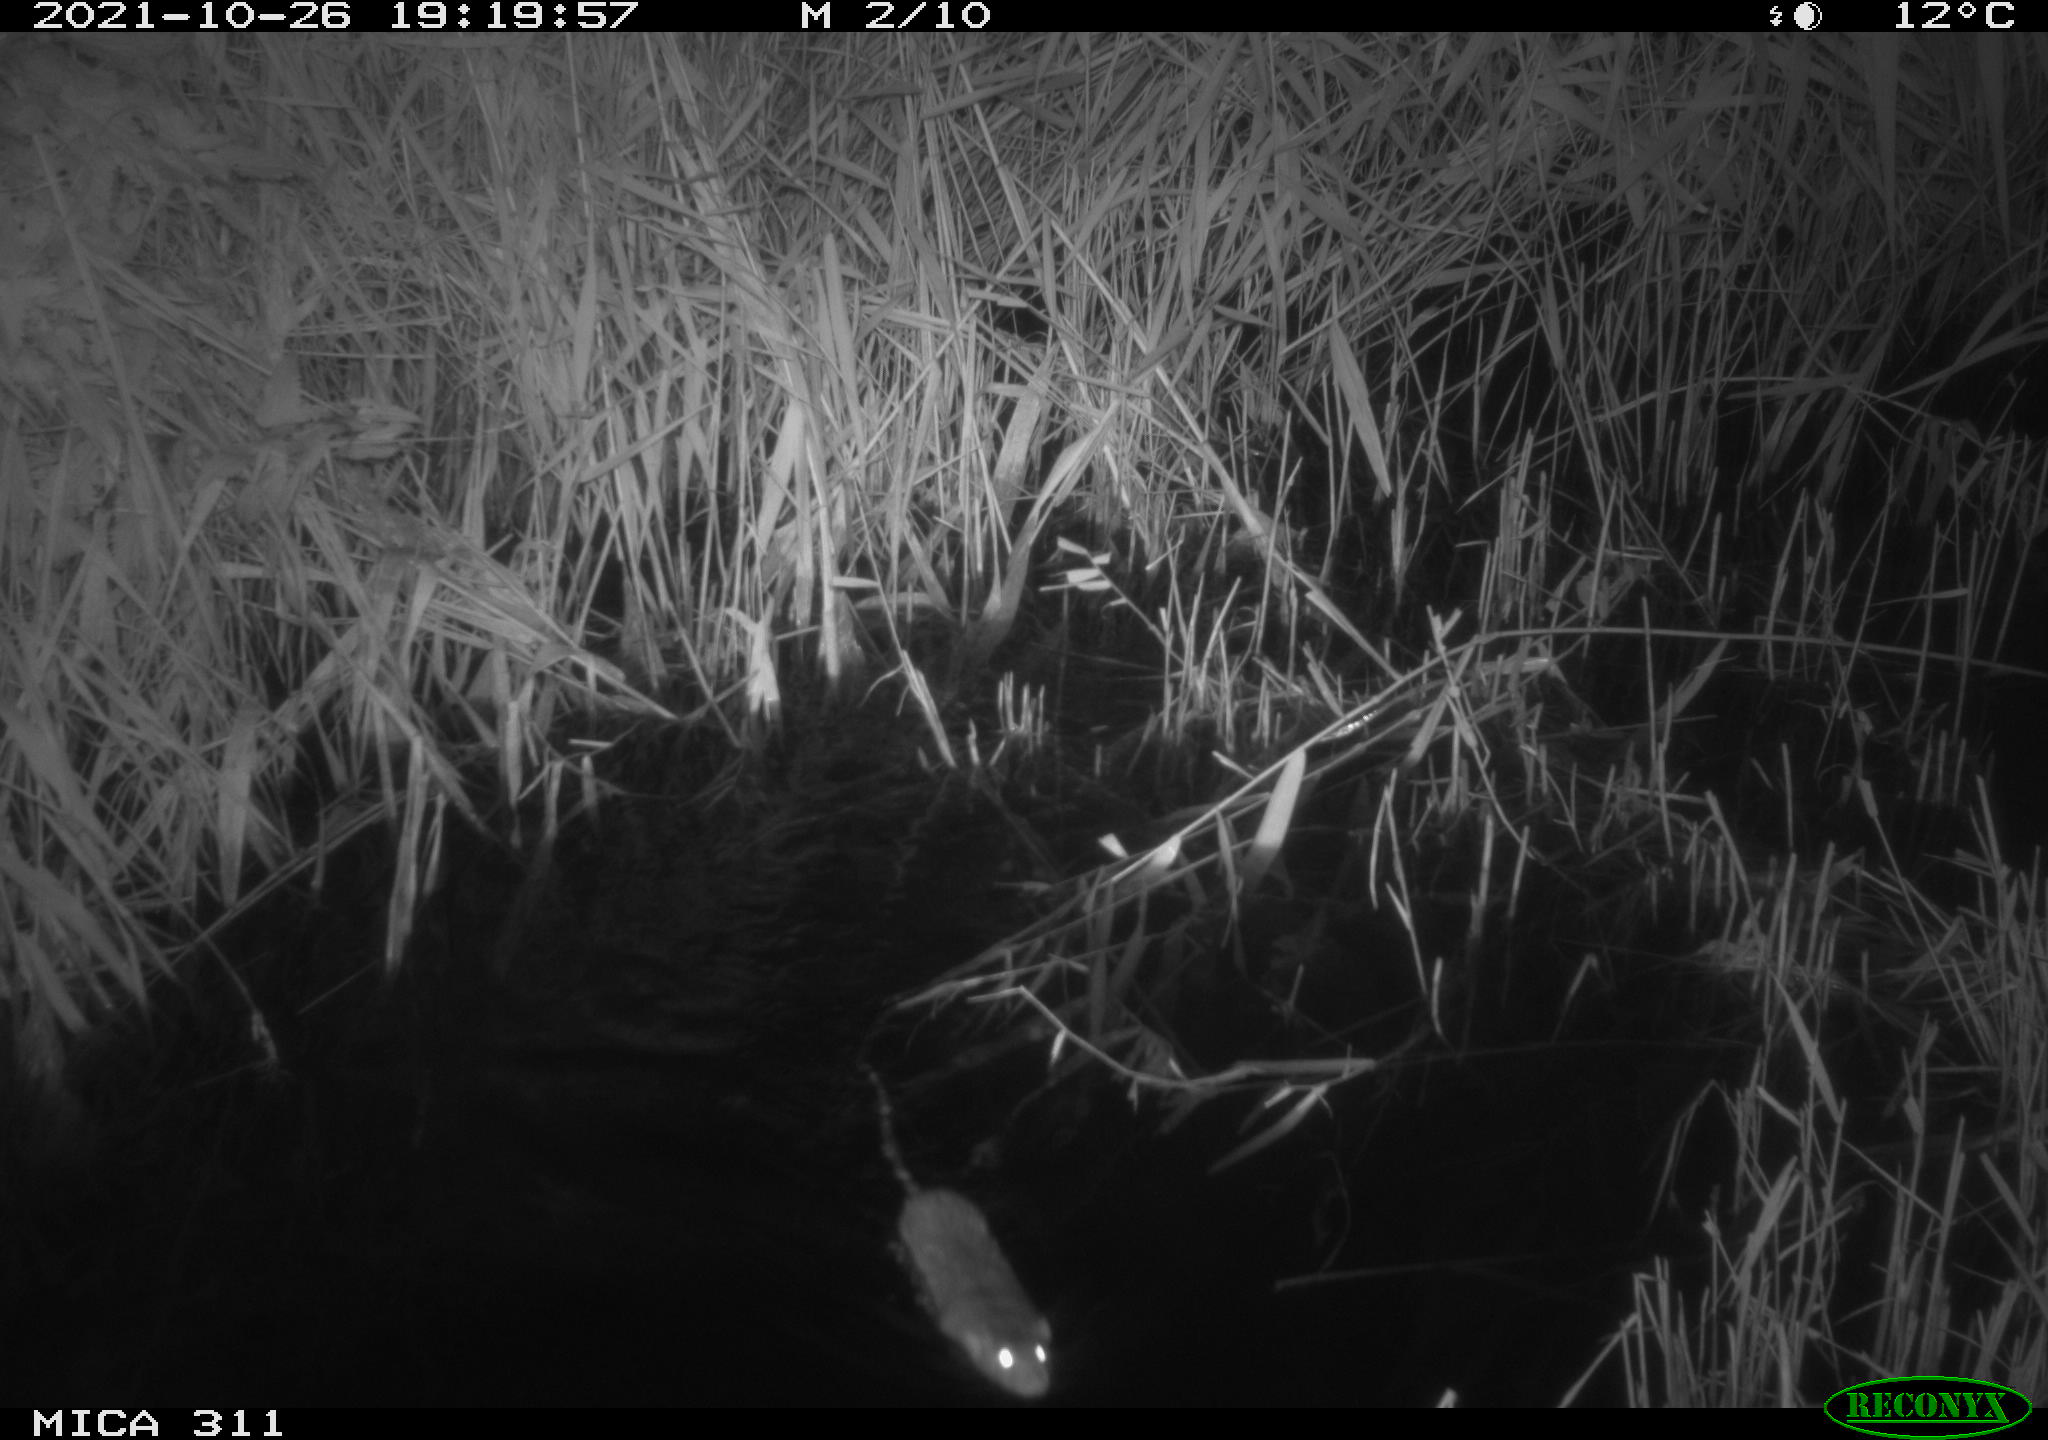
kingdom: Animalia
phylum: Chordata
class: Mammalia
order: Rodentia
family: Muridae
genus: Rattus
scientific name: Rattus norvegicus
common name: Brown rat
